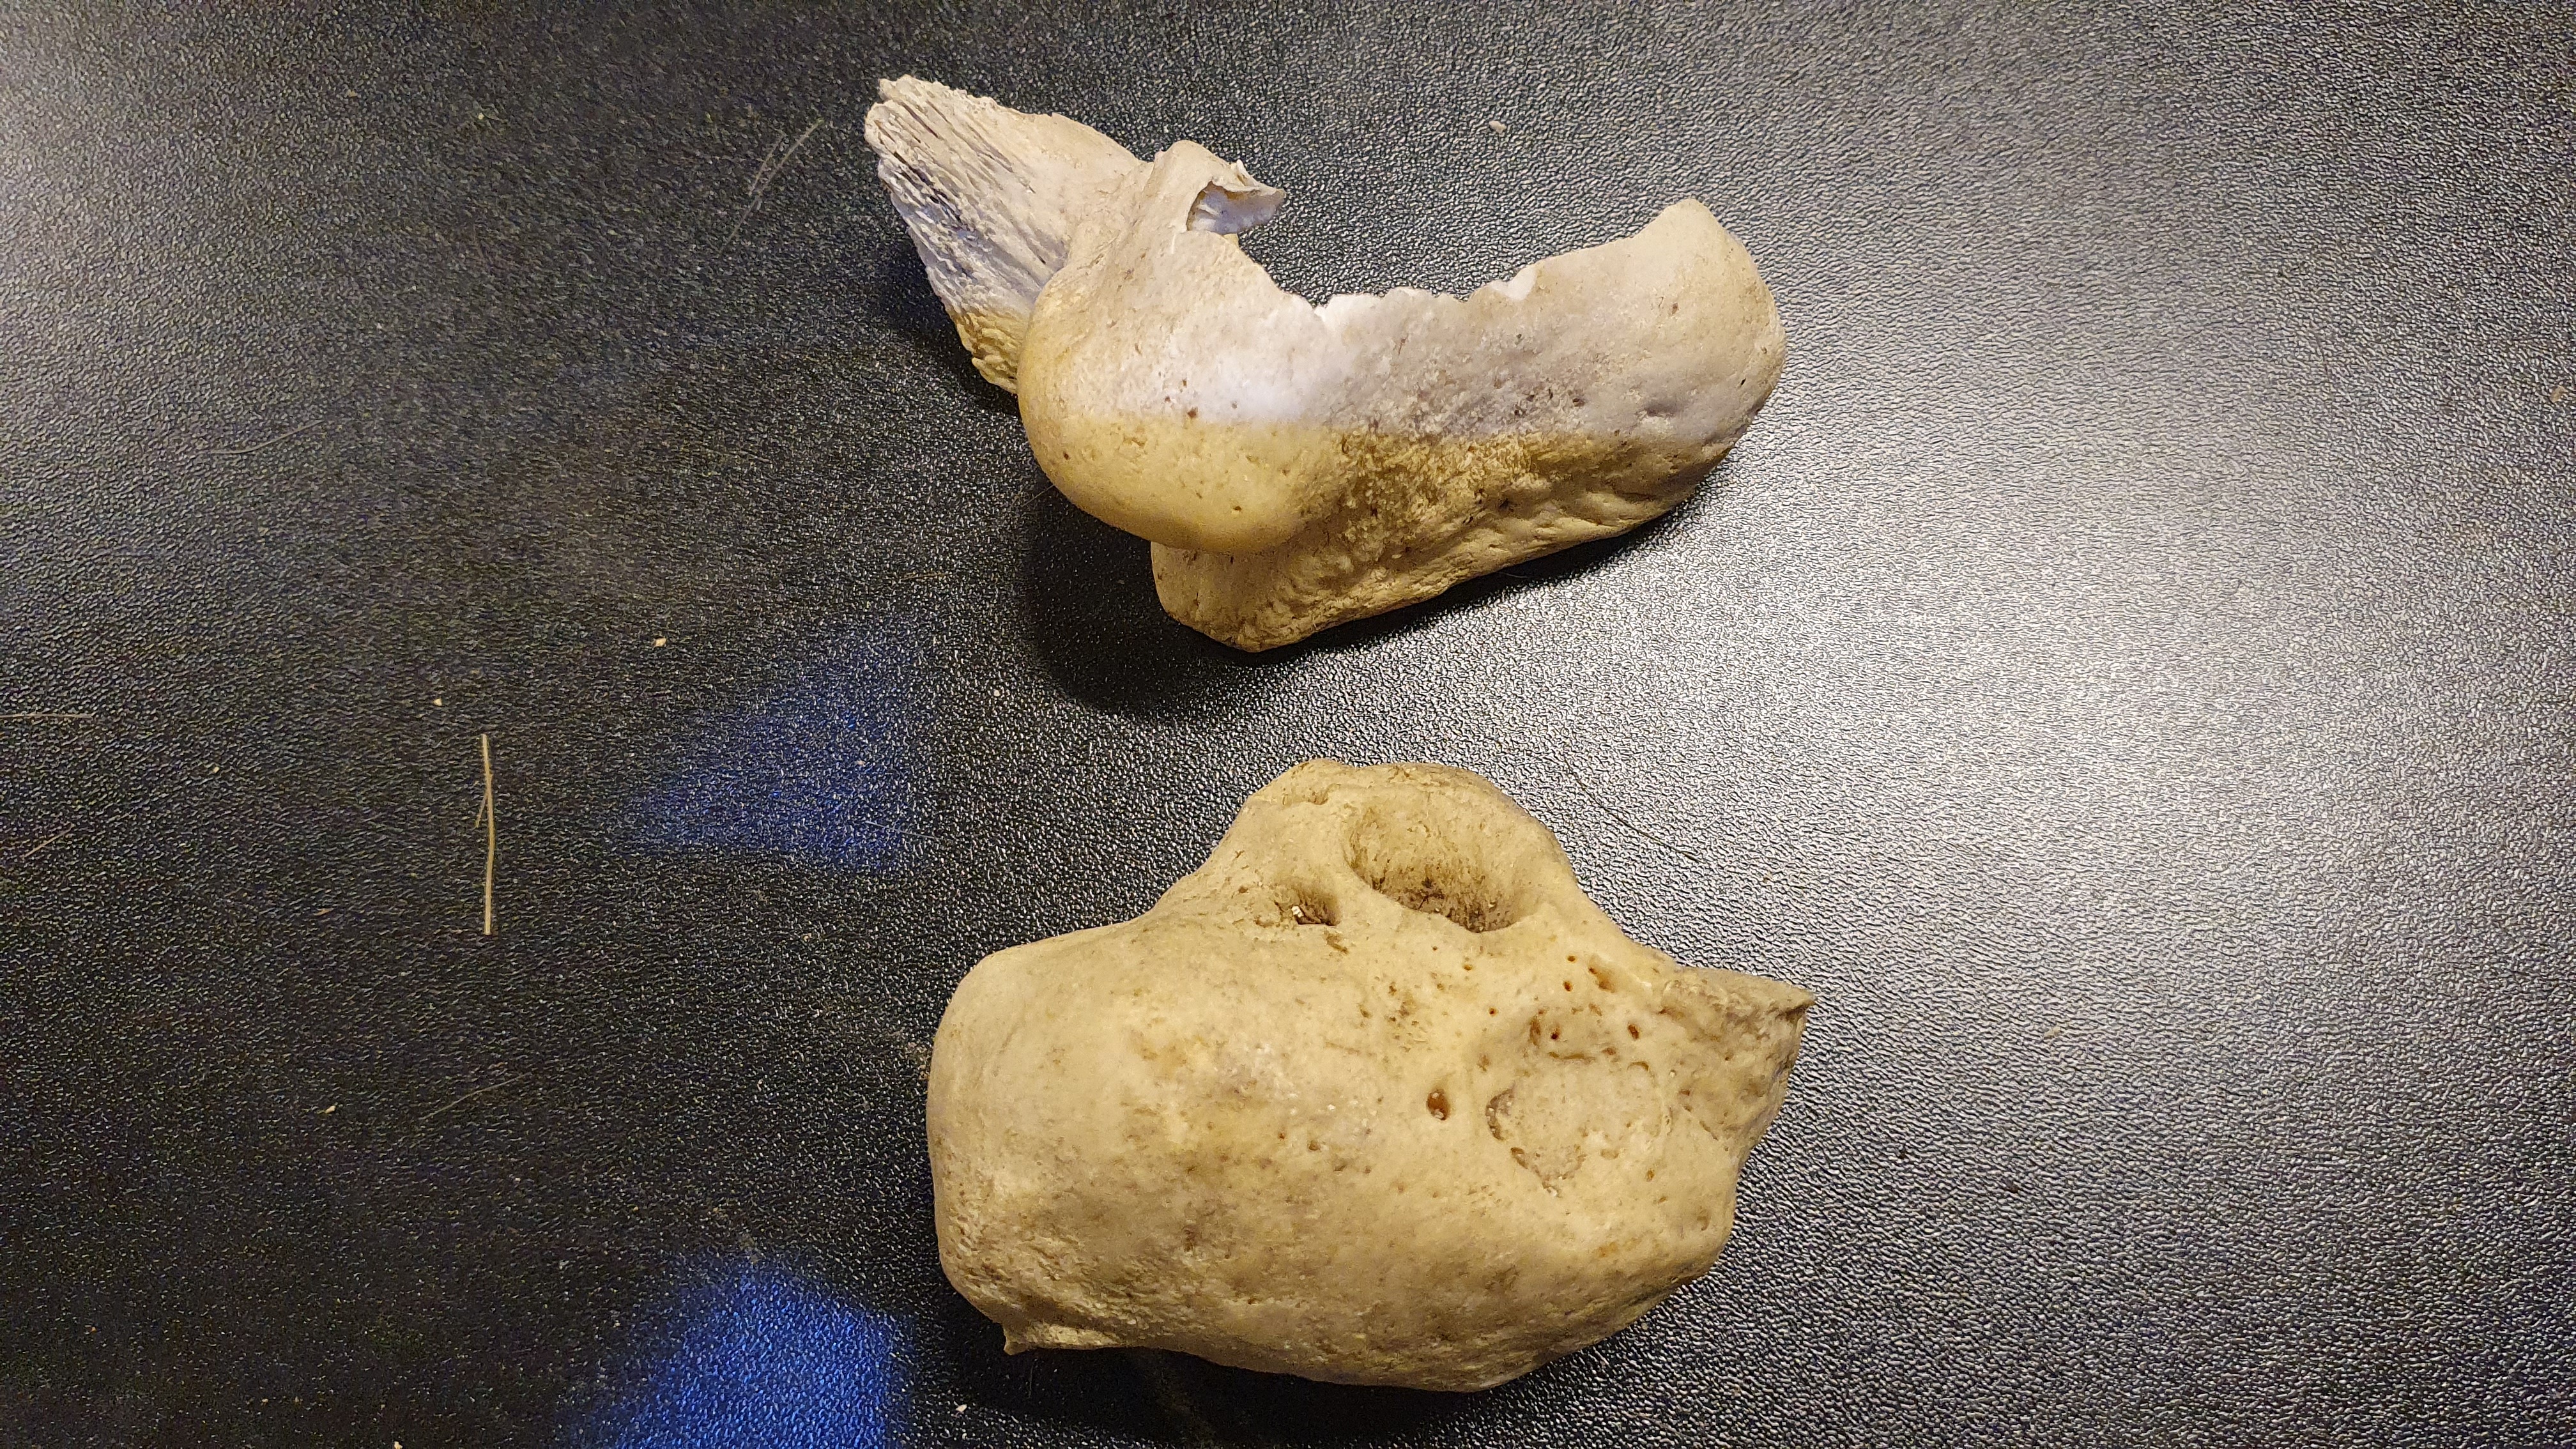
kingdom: Animalia
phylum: Chordata
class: Mammalia
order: Cetacea
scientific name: Cetacea
